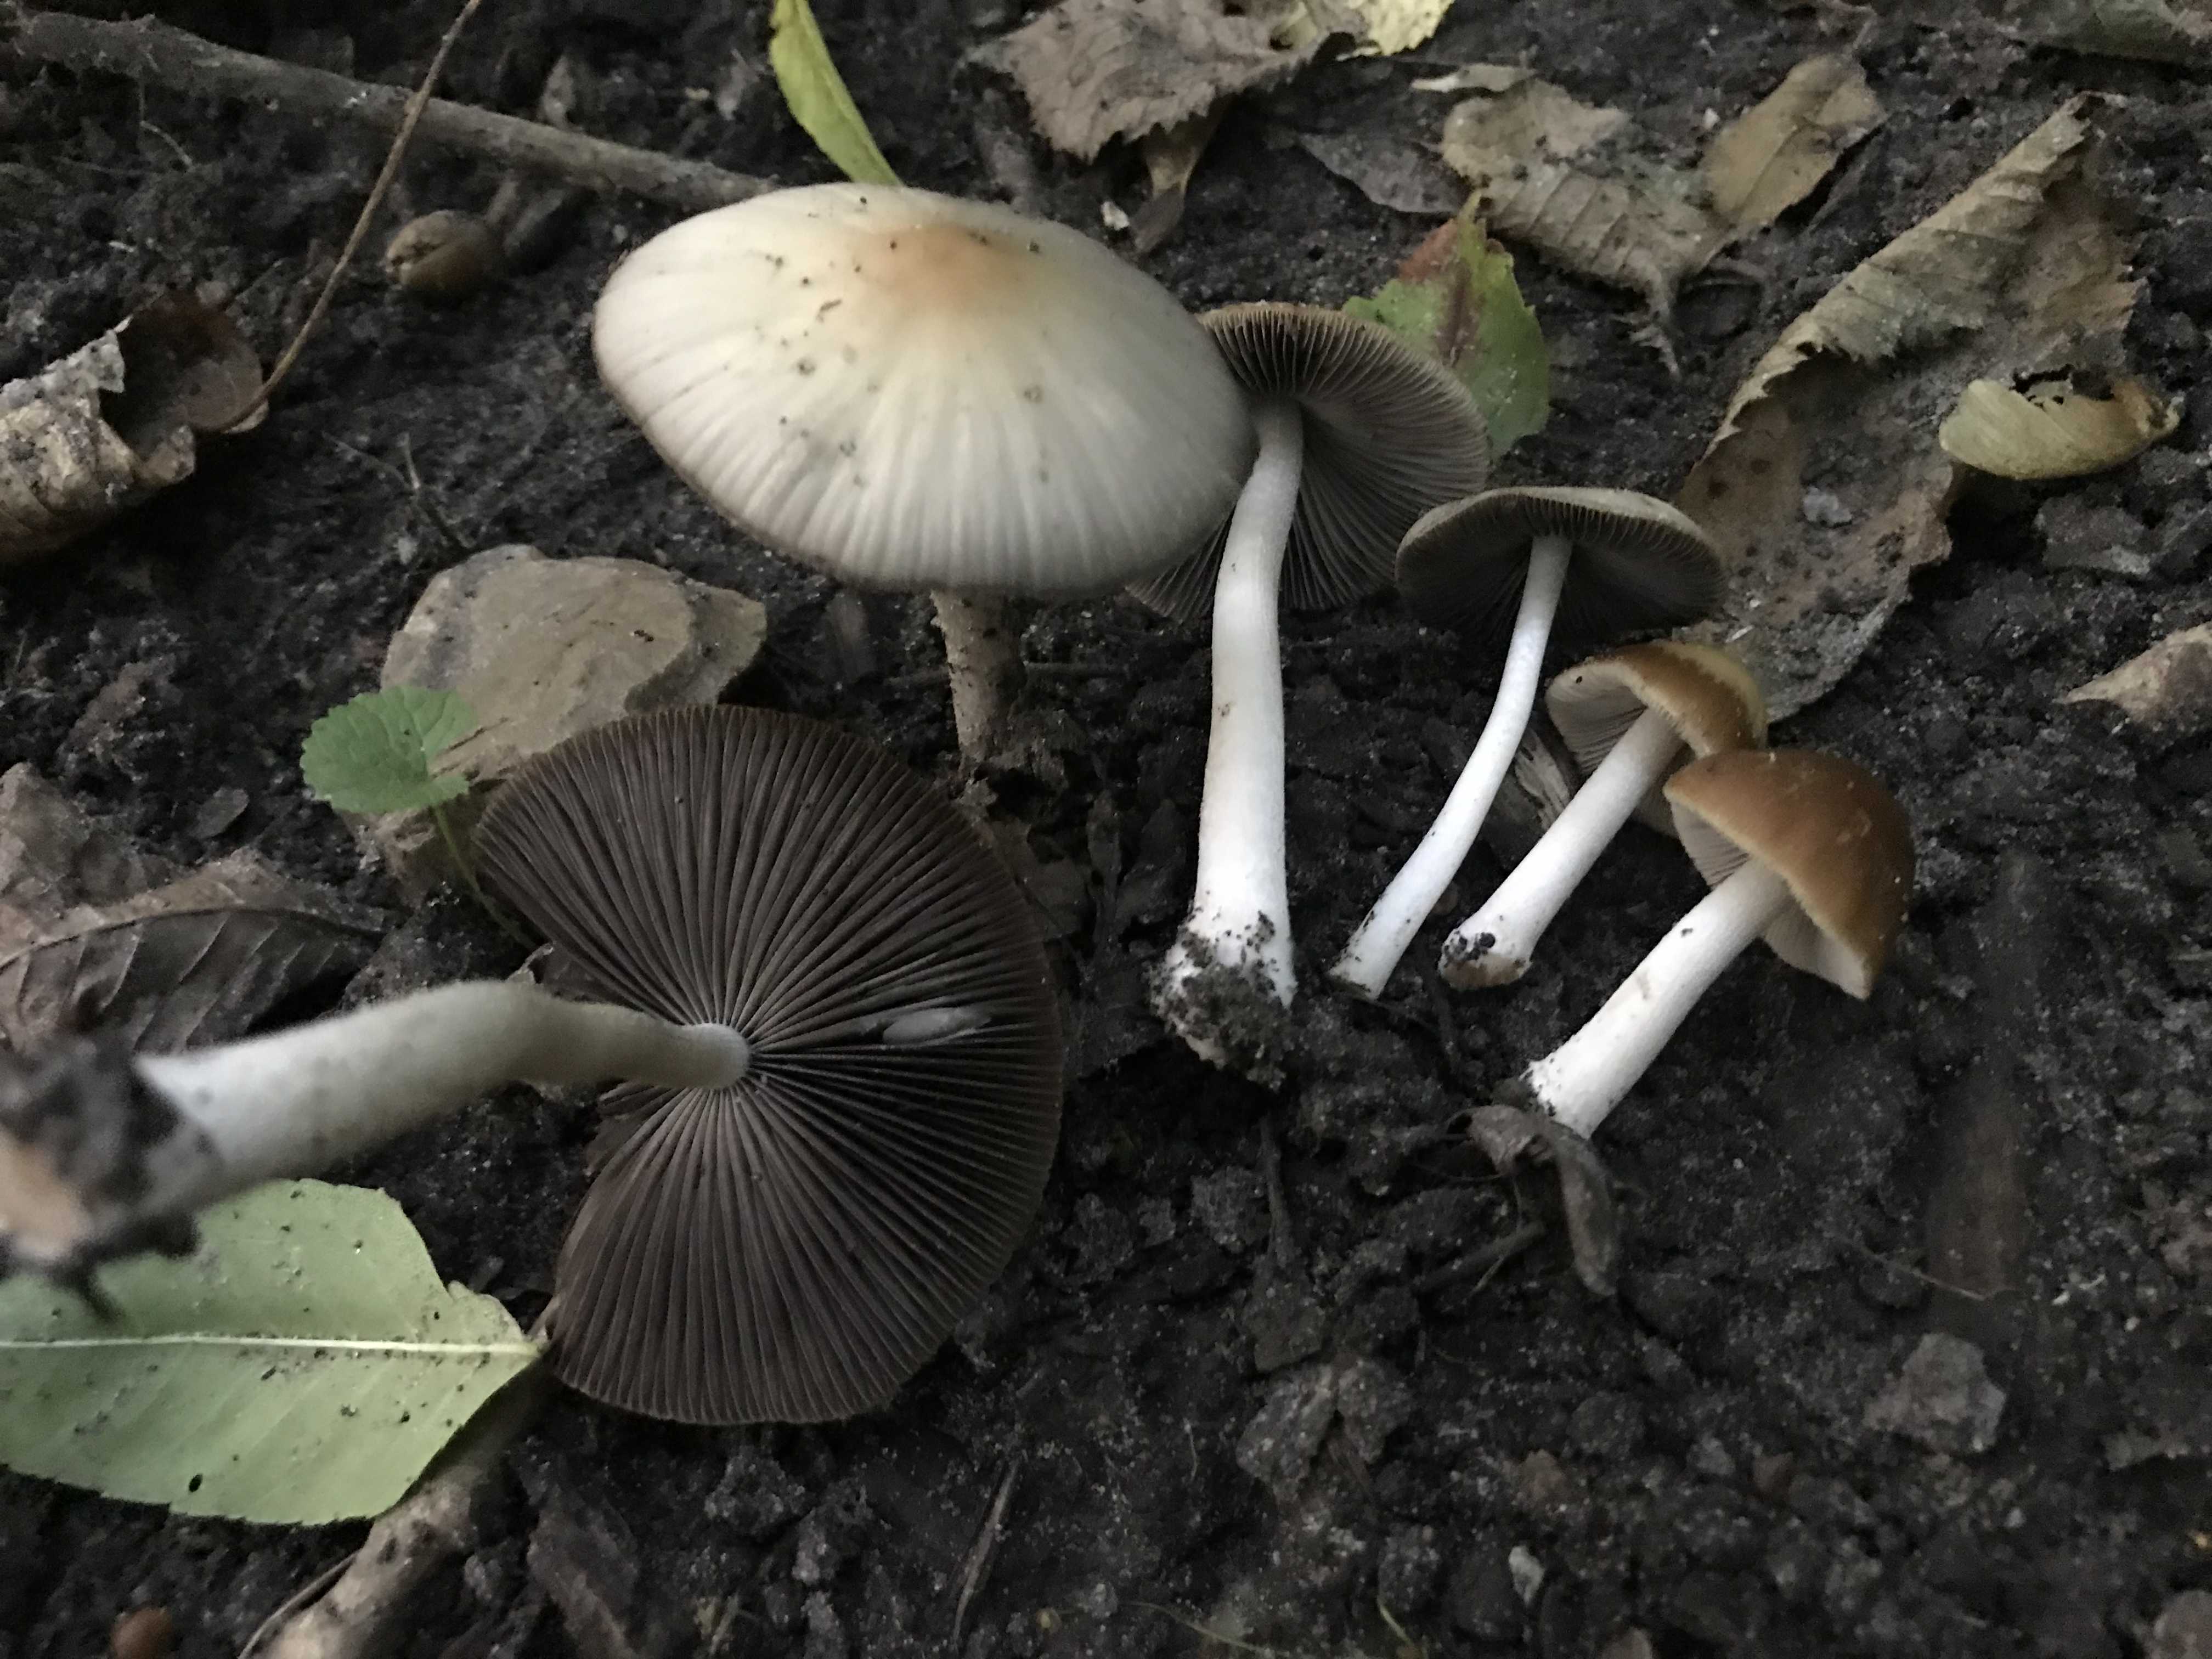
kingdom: Fungi
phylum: Basidiomycota
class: Agaricomycetes
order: Agaricales
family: Psathyrellaceae
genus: Psathyrella
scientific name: Psathyrella
